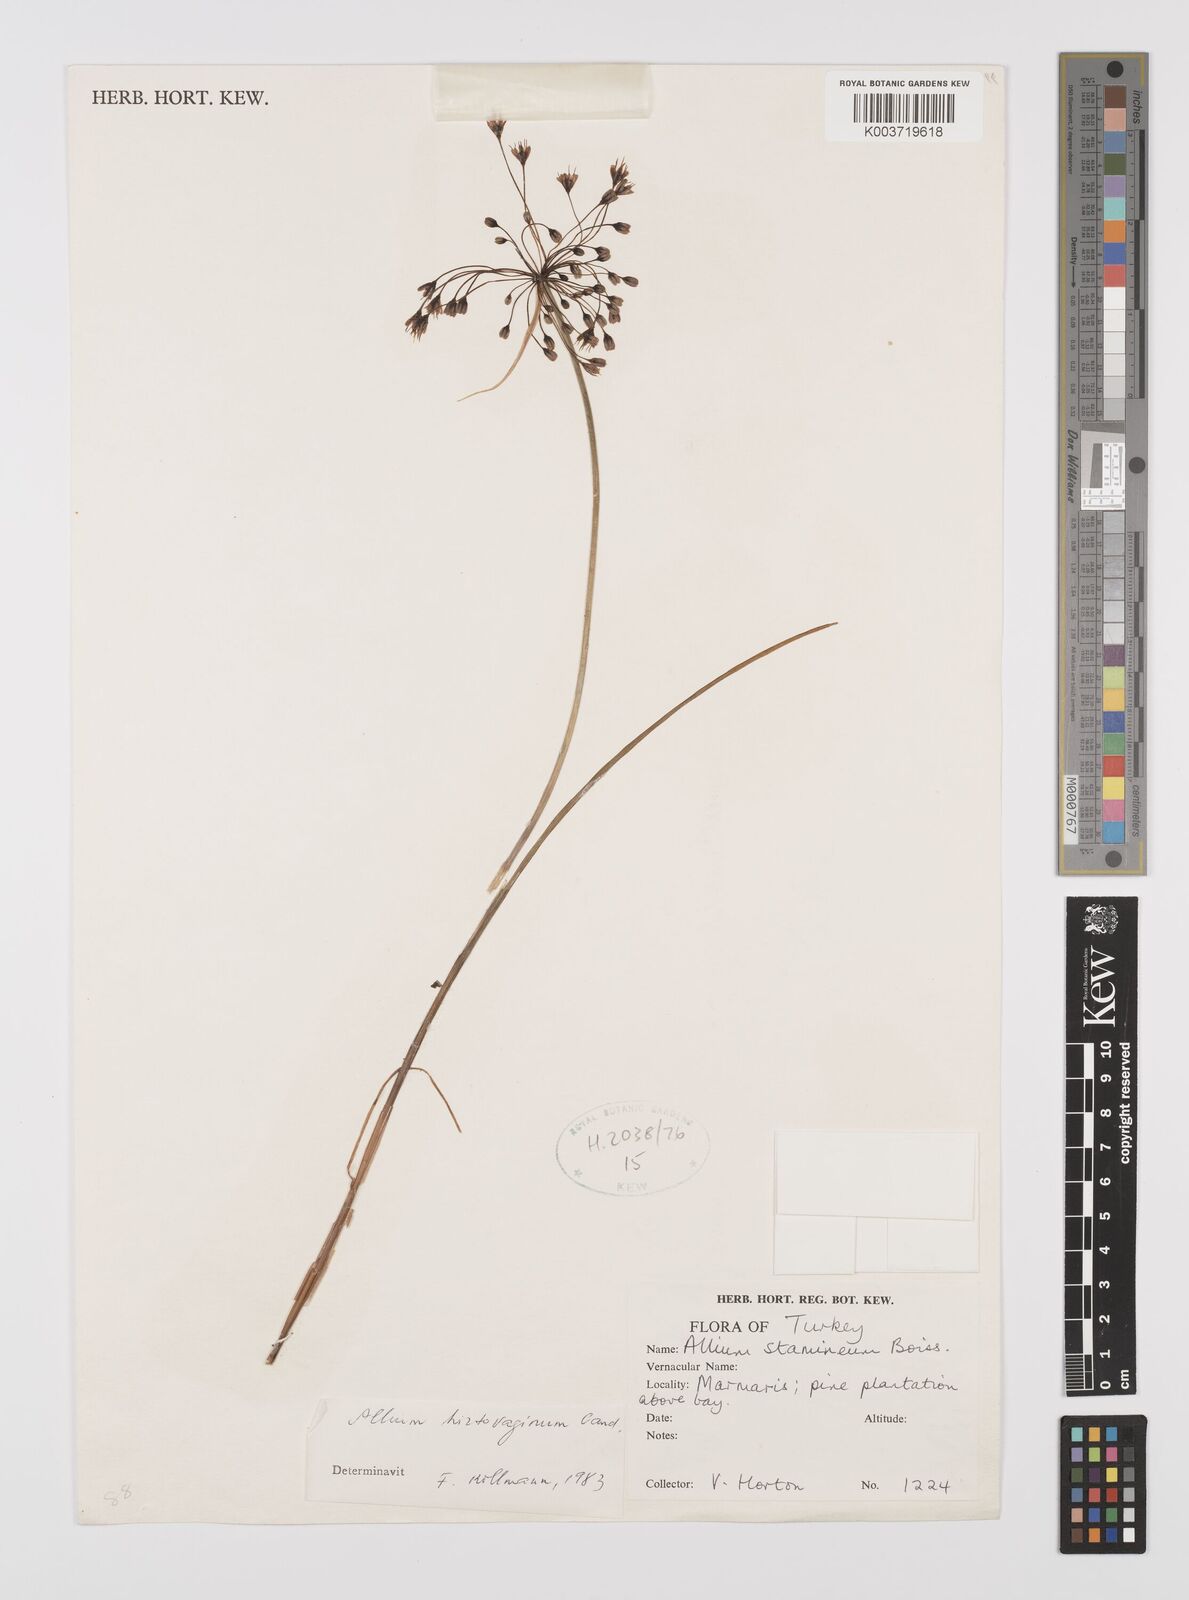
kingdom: Plantae
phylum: Tracheophyta
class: Liliopsida
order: Asparagales
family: Amaryllidaceae
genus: Allium
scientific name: Allium hirtovaginum
